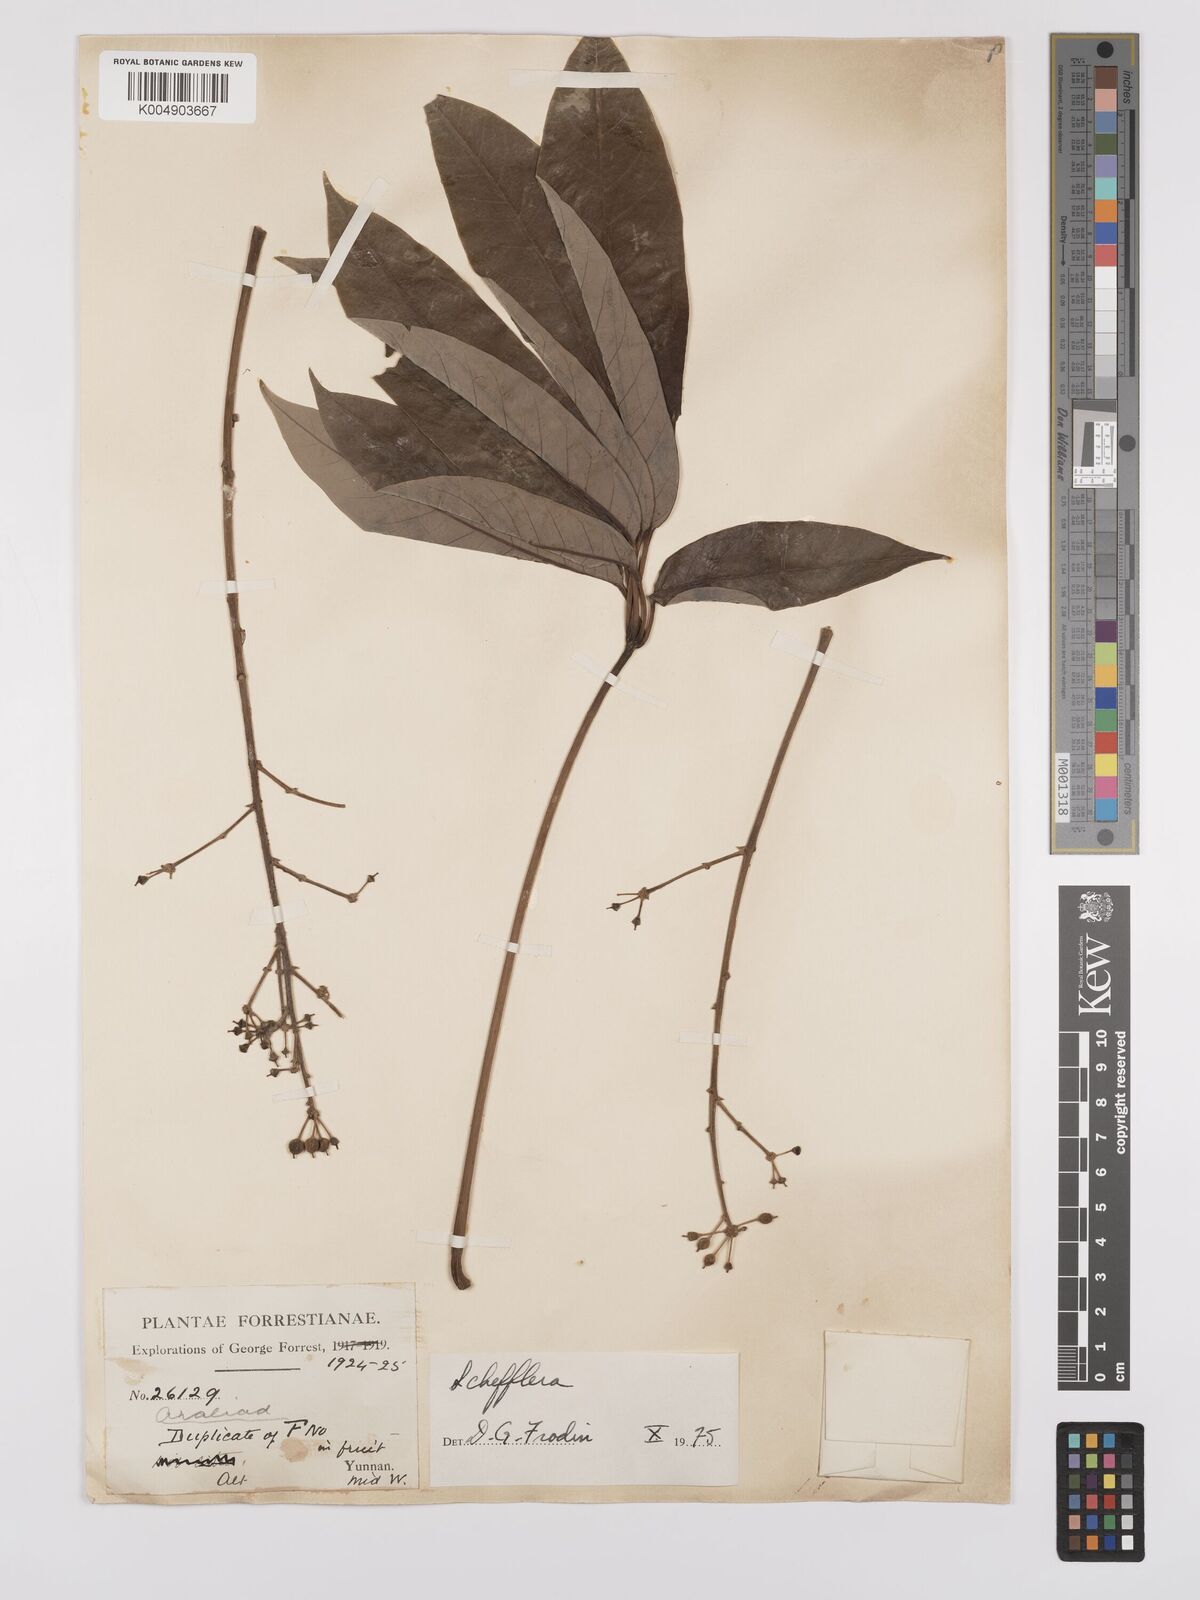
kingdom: Plantae
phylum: Tracheophyta
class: Magnoliopsida
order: Apiales
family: Araliaceae
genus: Heptapleurum
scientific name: Heptapleurum
